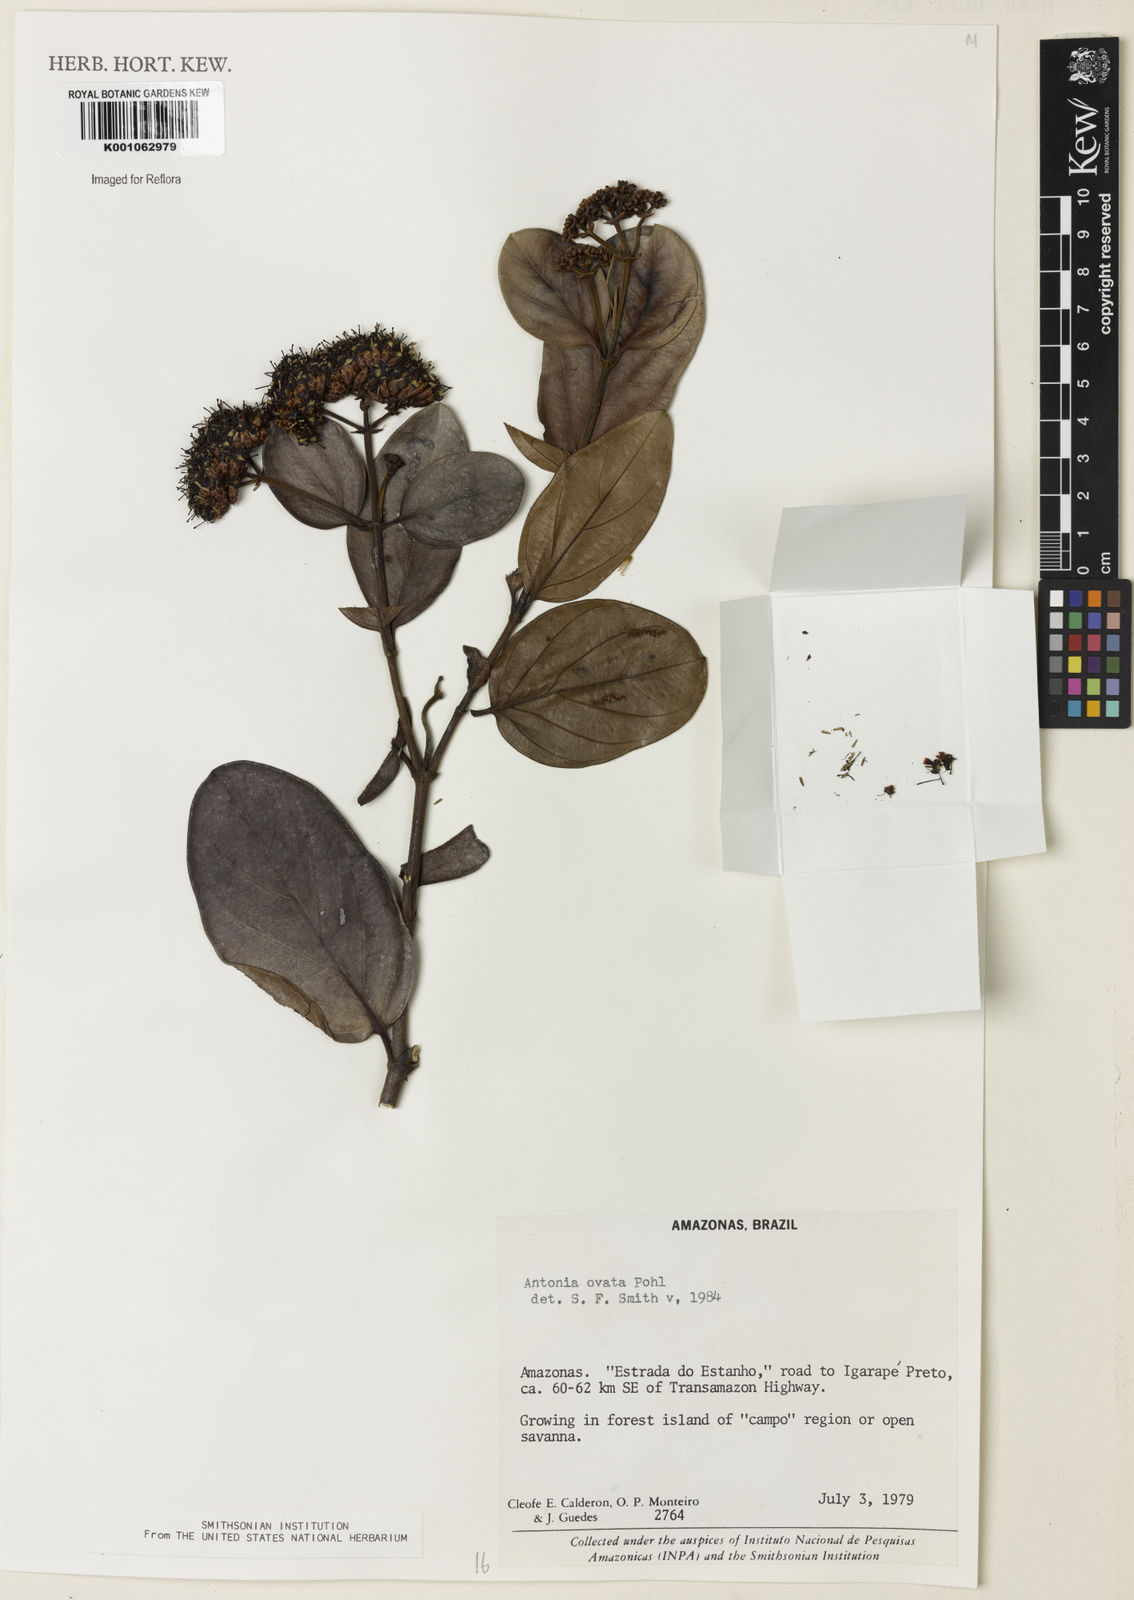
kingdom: Plantae
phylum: Tracheophyta
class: Magnoliopsida
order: Gentianales
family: Loganiaceae
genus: Strychnos
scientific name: Strychnos
